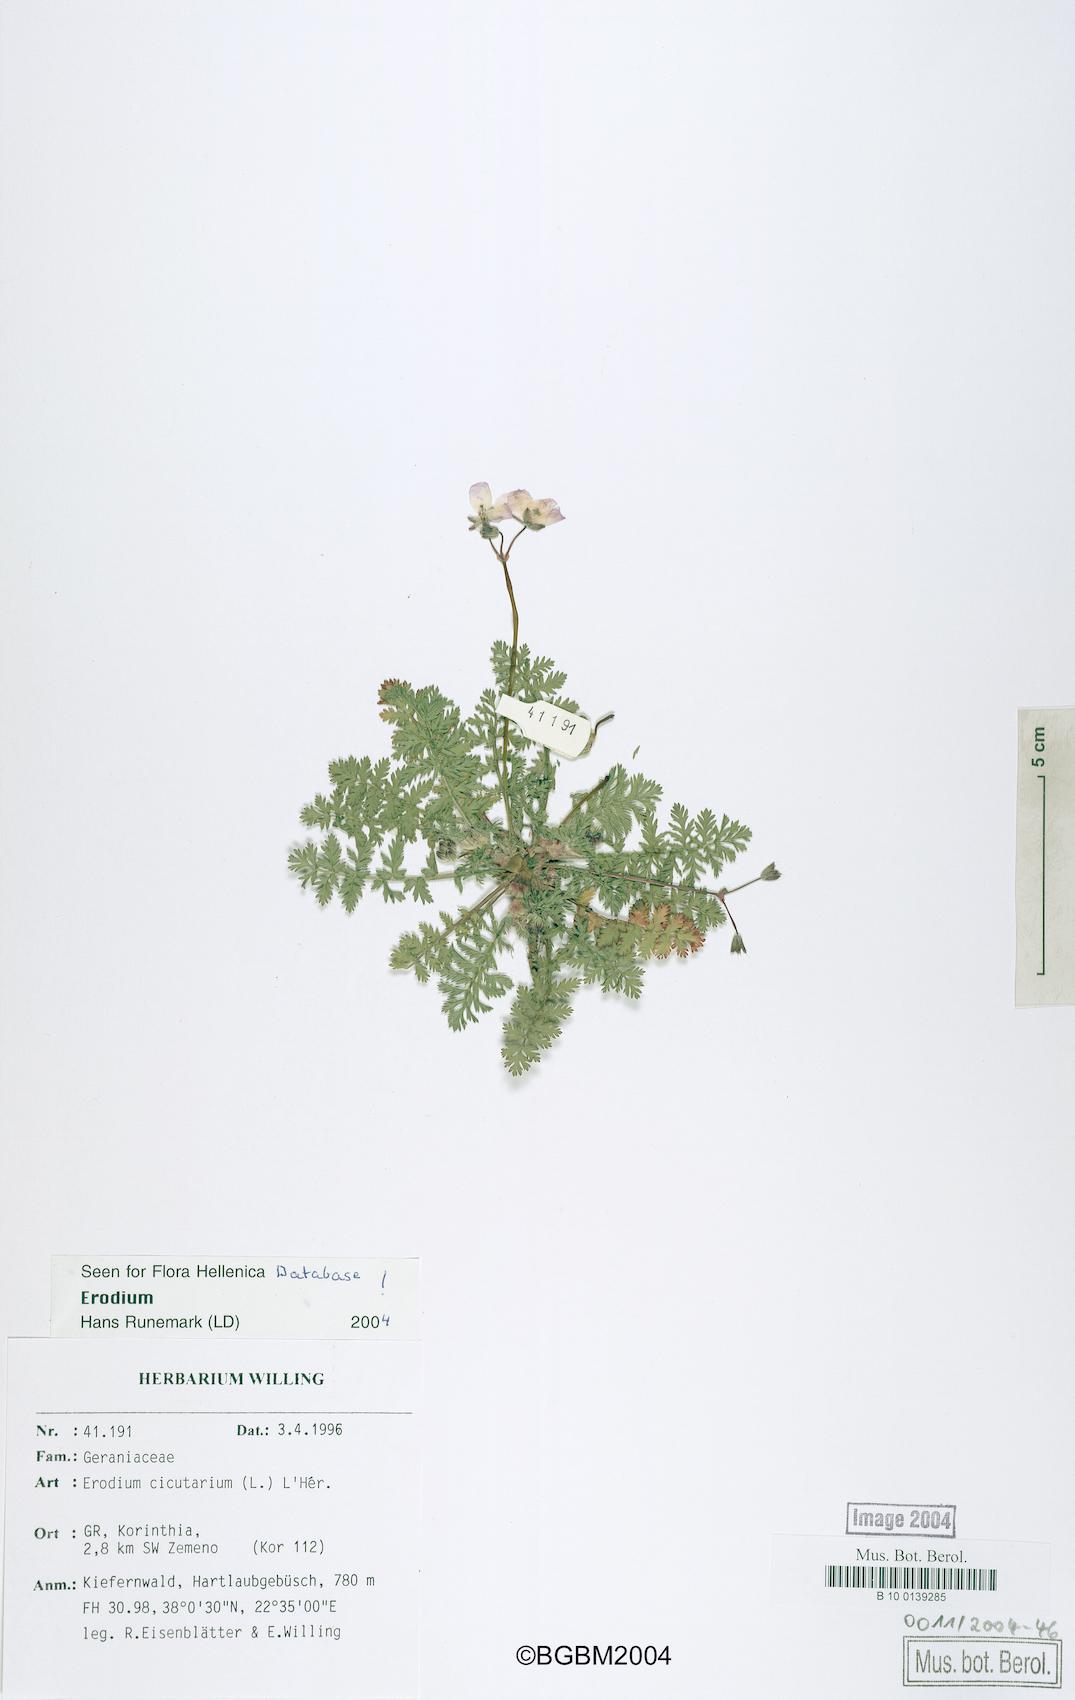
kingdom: Plantae
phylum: Tracheophyta
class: Magnoliopsida
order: Geraniales
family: Geraniaceae
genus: Erodium
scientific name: Erodium cicutarium
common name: Common stork's-bill
